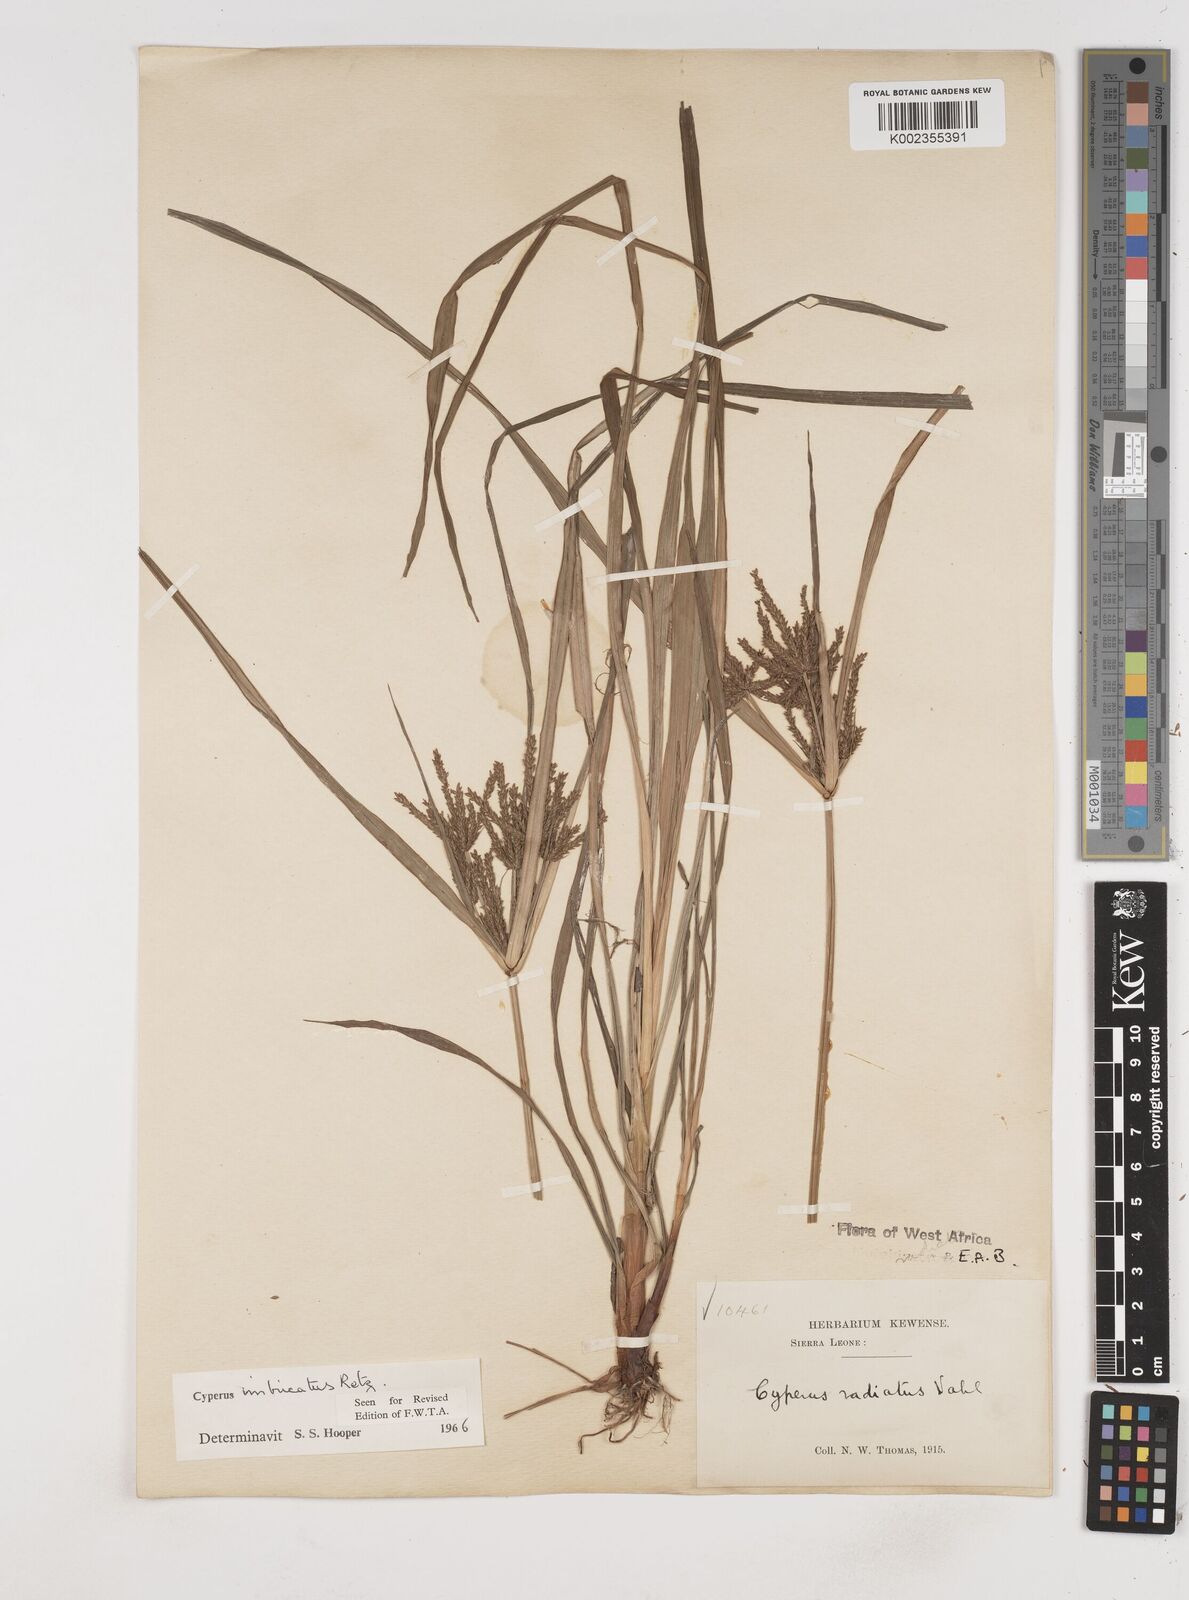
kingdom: Plantae
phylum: Tracheophyta
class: Liliopsida
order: Poales
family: Cyperaceae
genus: Cyperus
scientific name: Cyperus imbricatus
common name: Shingle flatsedge
